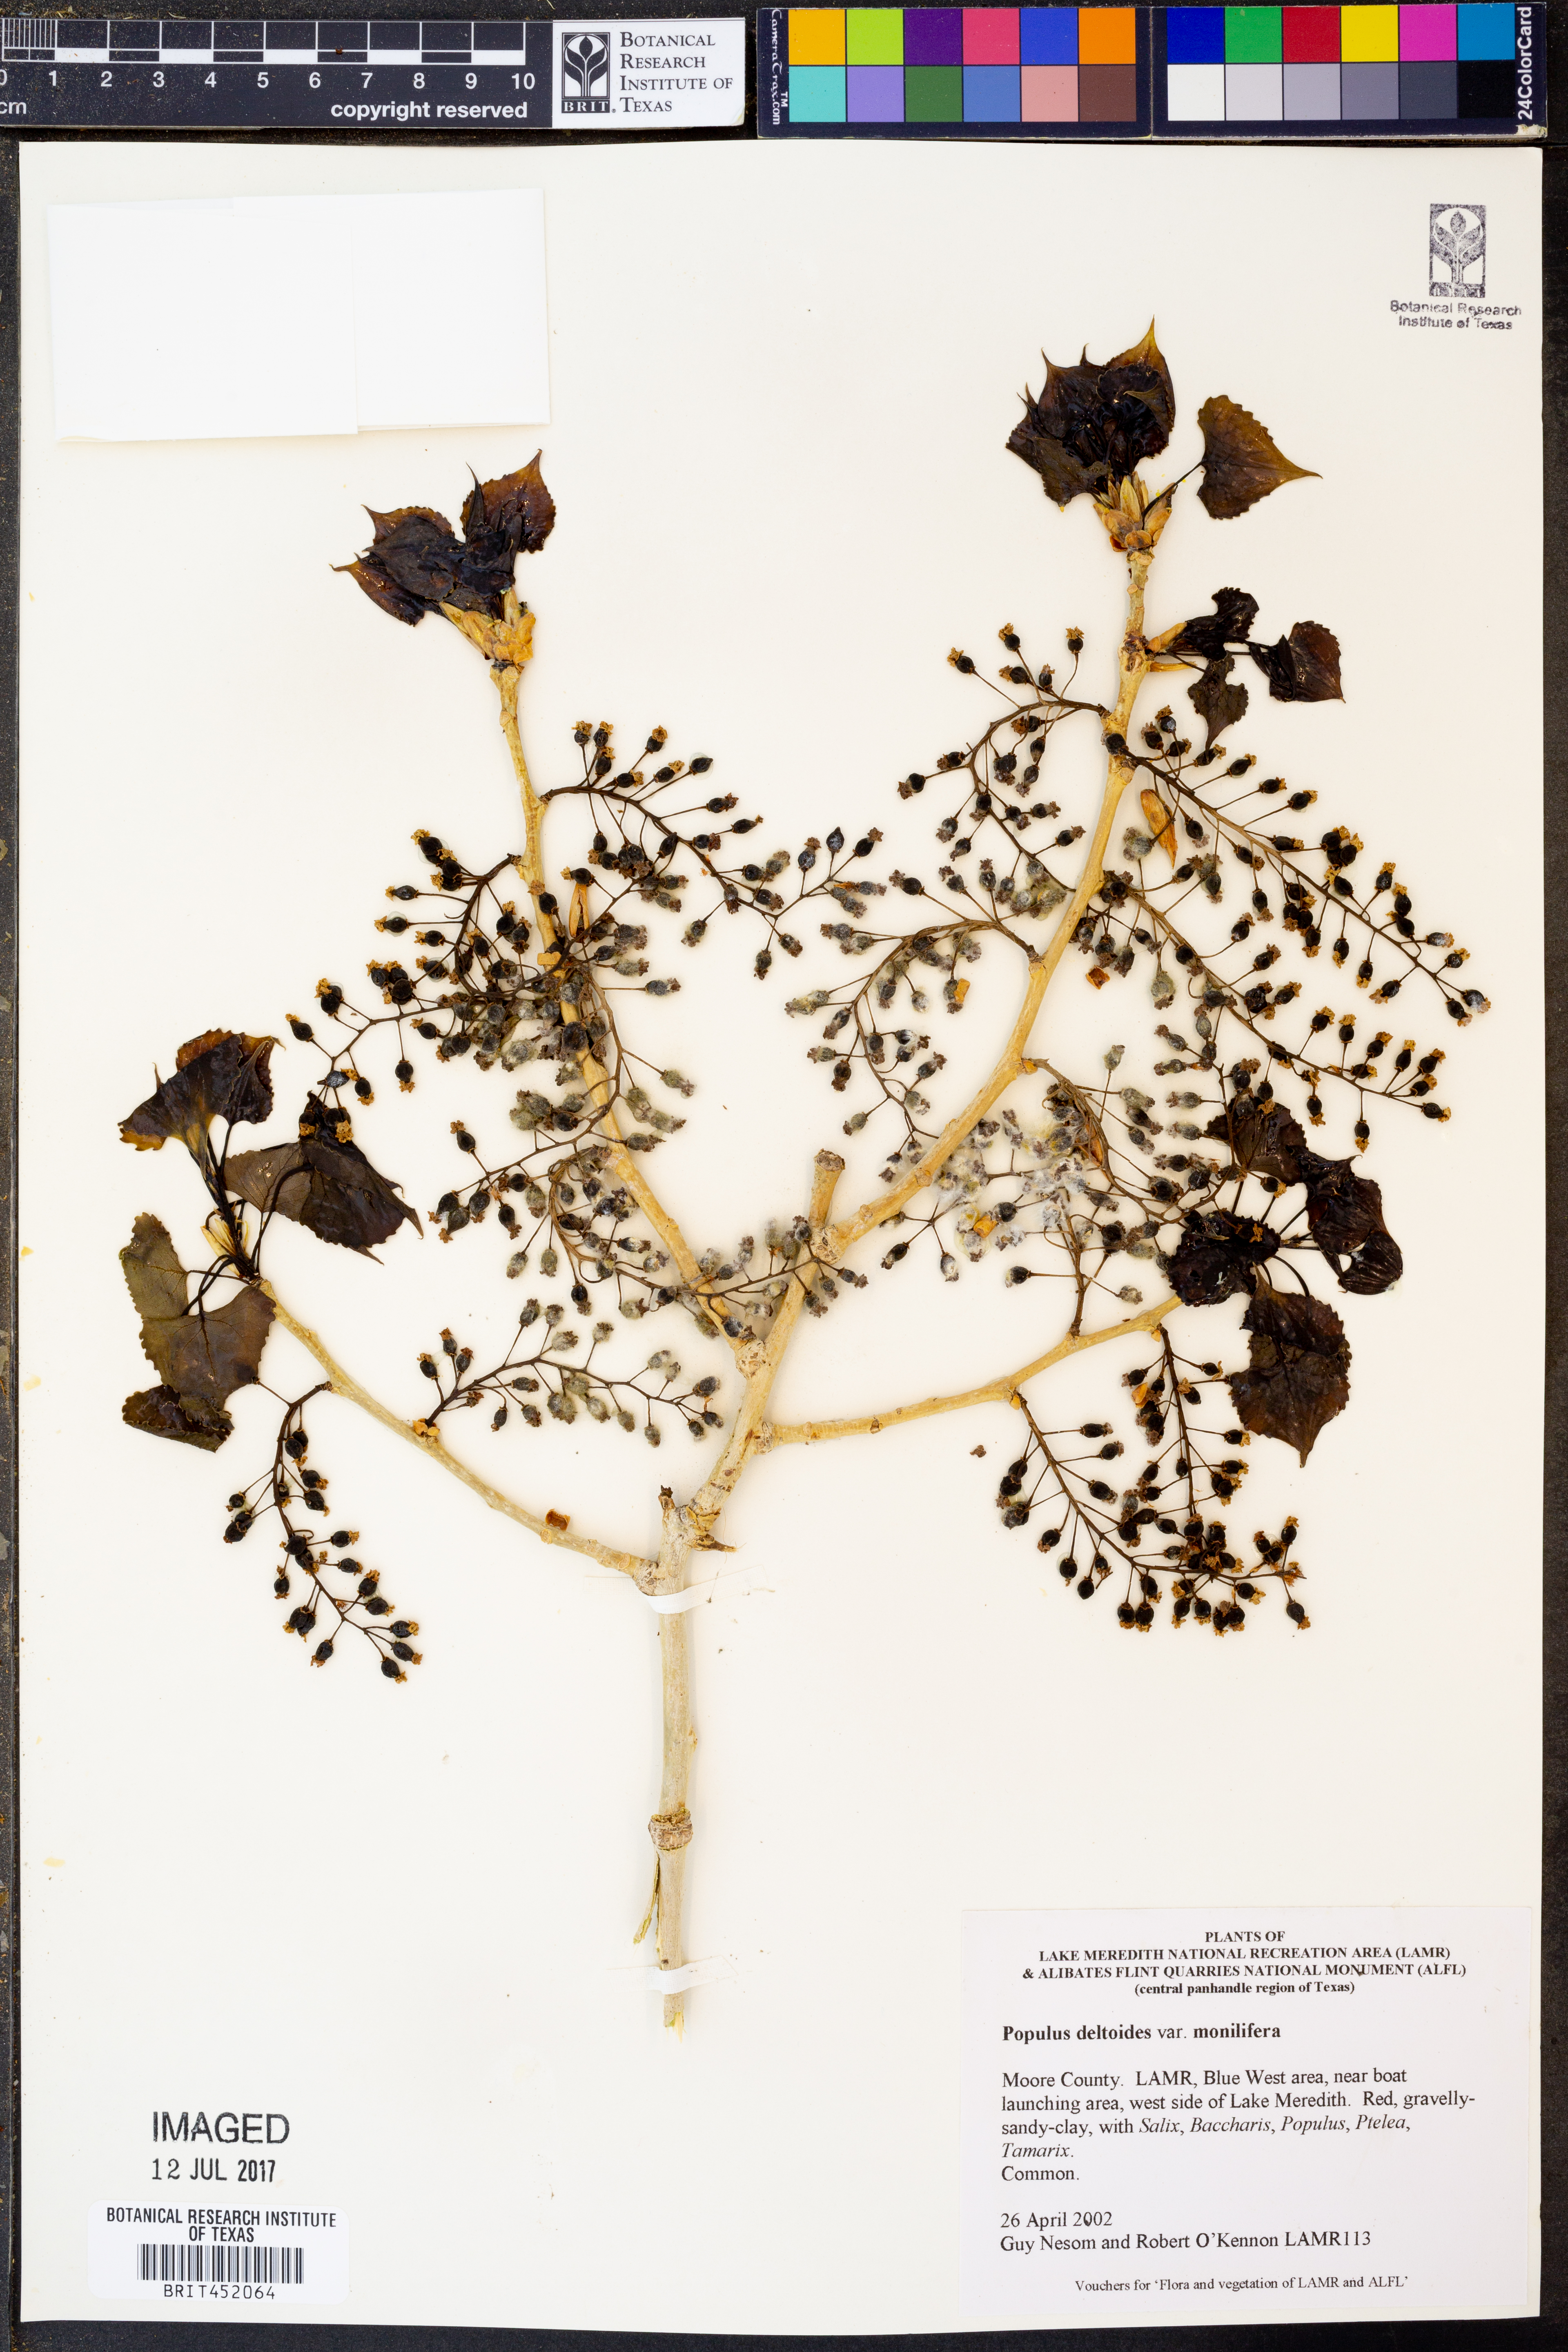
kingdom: Plantae
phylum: Tracheophyta
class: Magnoliopsida
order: Malpighiales
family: Salicaceae
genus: Populus
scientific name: Populus deltoides
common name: Eastern cottonwood
